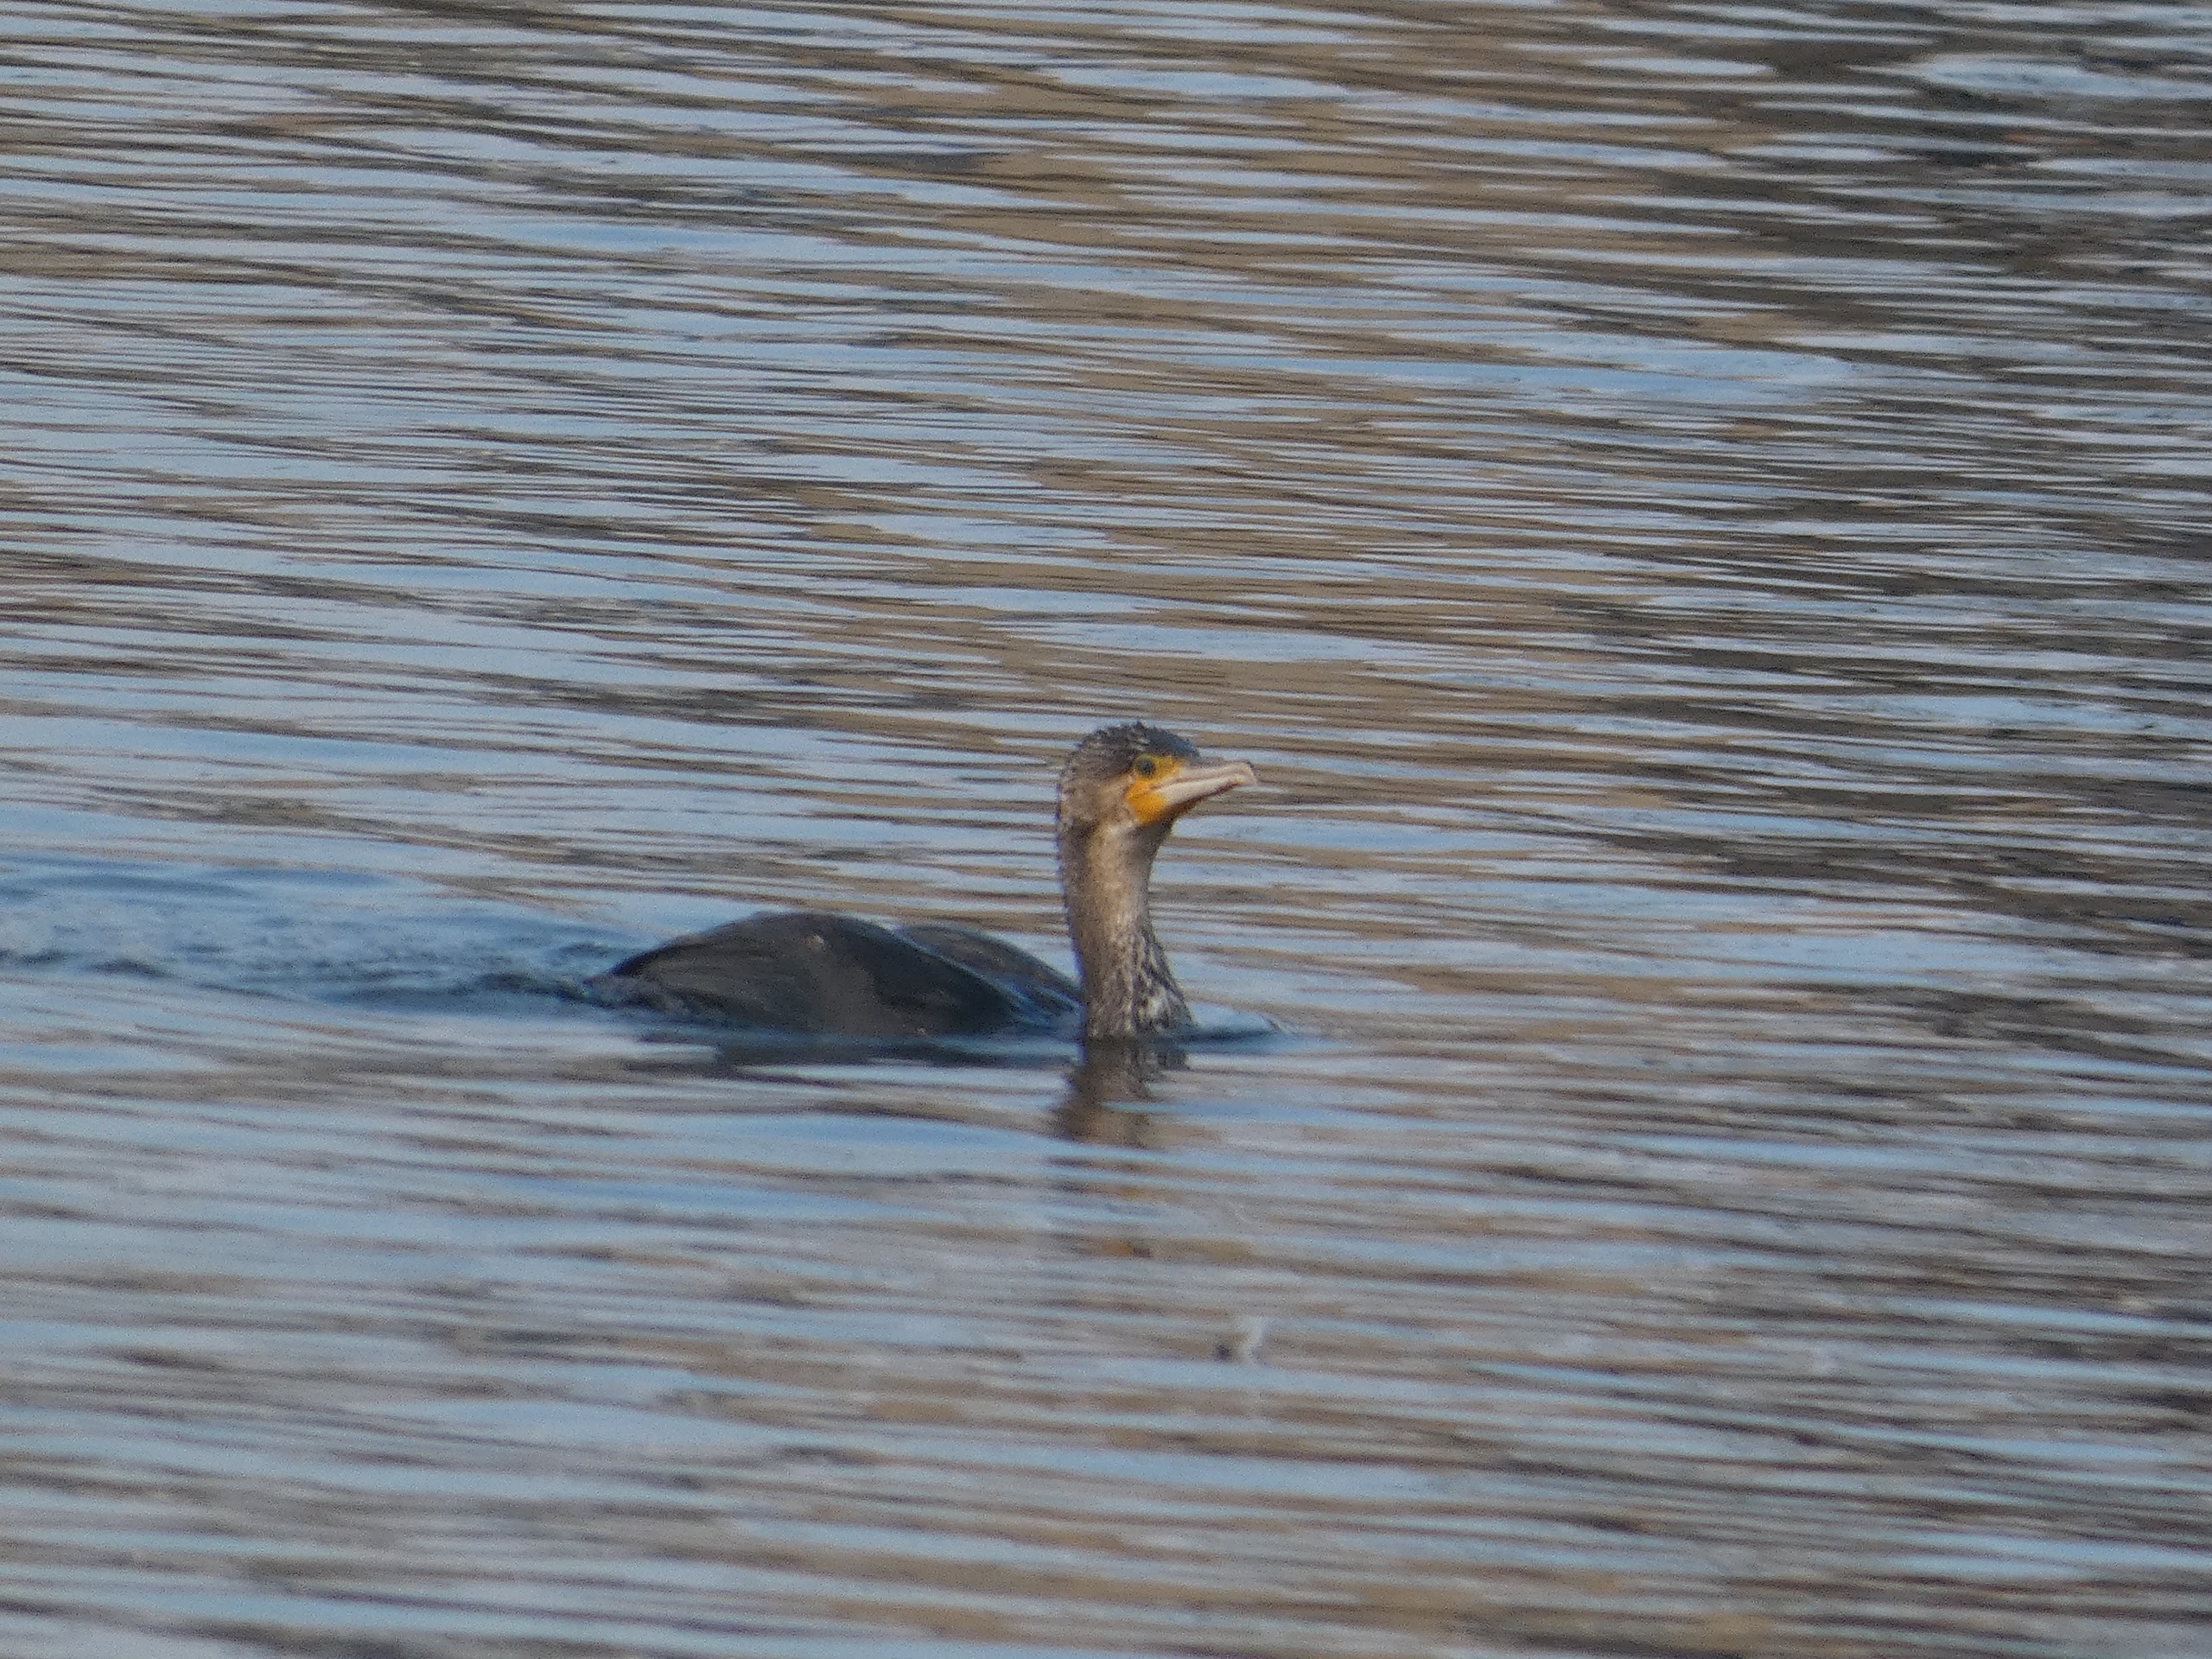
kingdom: Animalia
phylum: Chordata
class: Aves
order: Suliformes
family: Phalacrocoracidae
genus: Phalacrocorax
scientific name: Phalacrocorax carbo
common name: Skarv
